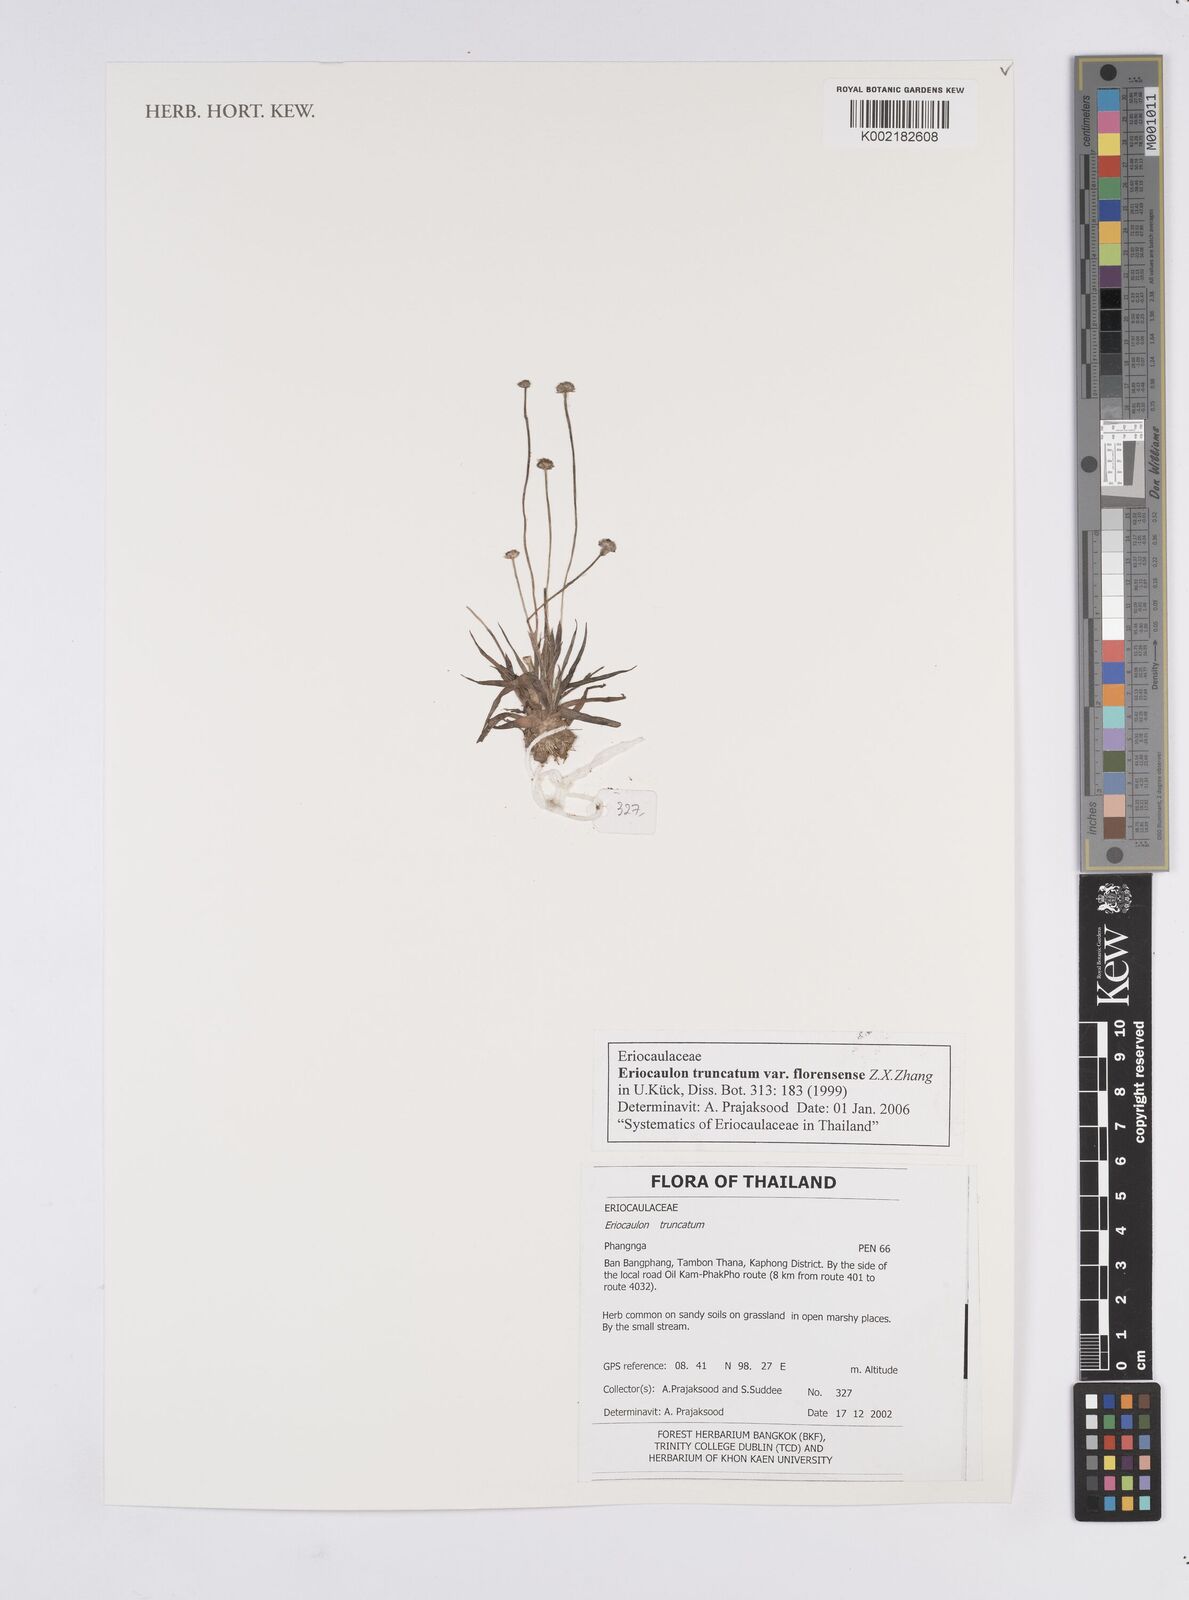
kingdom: Plantae
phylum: Tracheophyta
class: Liliopsida
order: Poales
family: Eriocaulaceae
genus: Eriocaulon
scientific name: Eriocaulon truncatum
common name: Short pipe-wort
